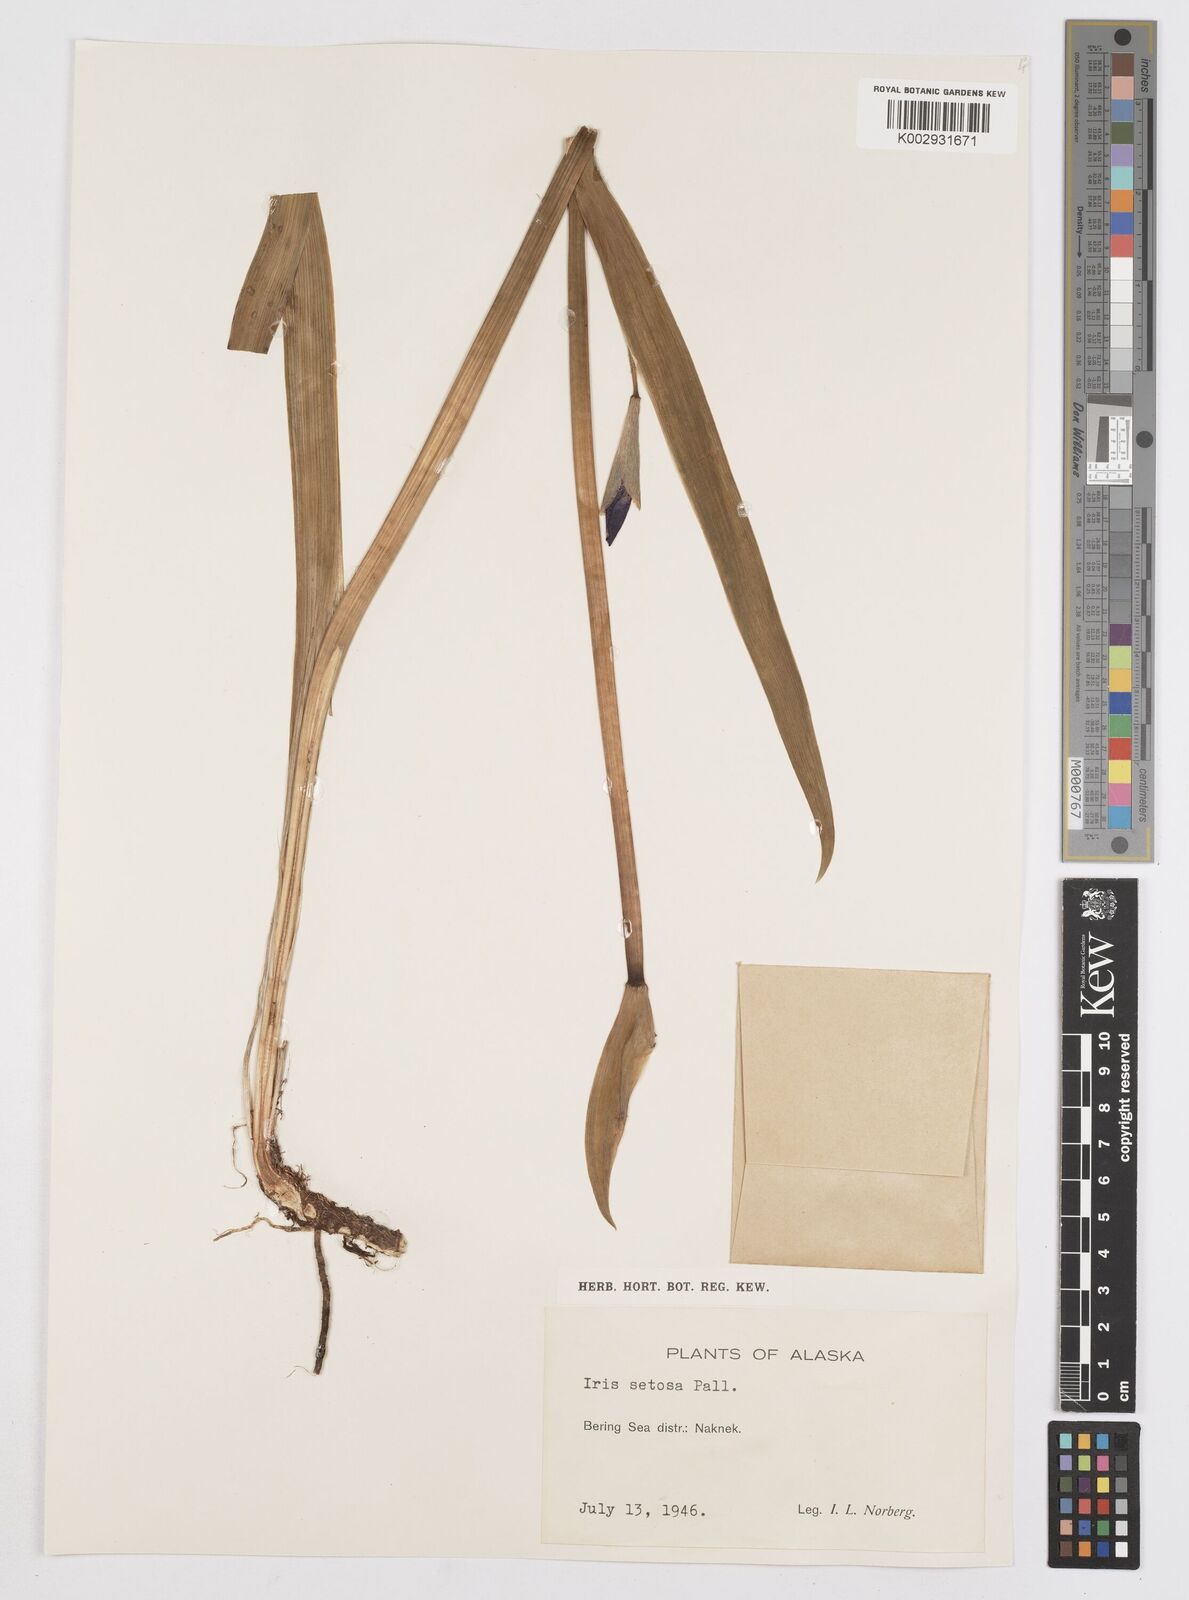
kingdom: Plantae
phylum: Tracheophyta
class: Liliopsida
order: Asparagales
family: Iridaceae
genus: Iris
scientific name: Iris setosa
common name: Arctic blue flag
